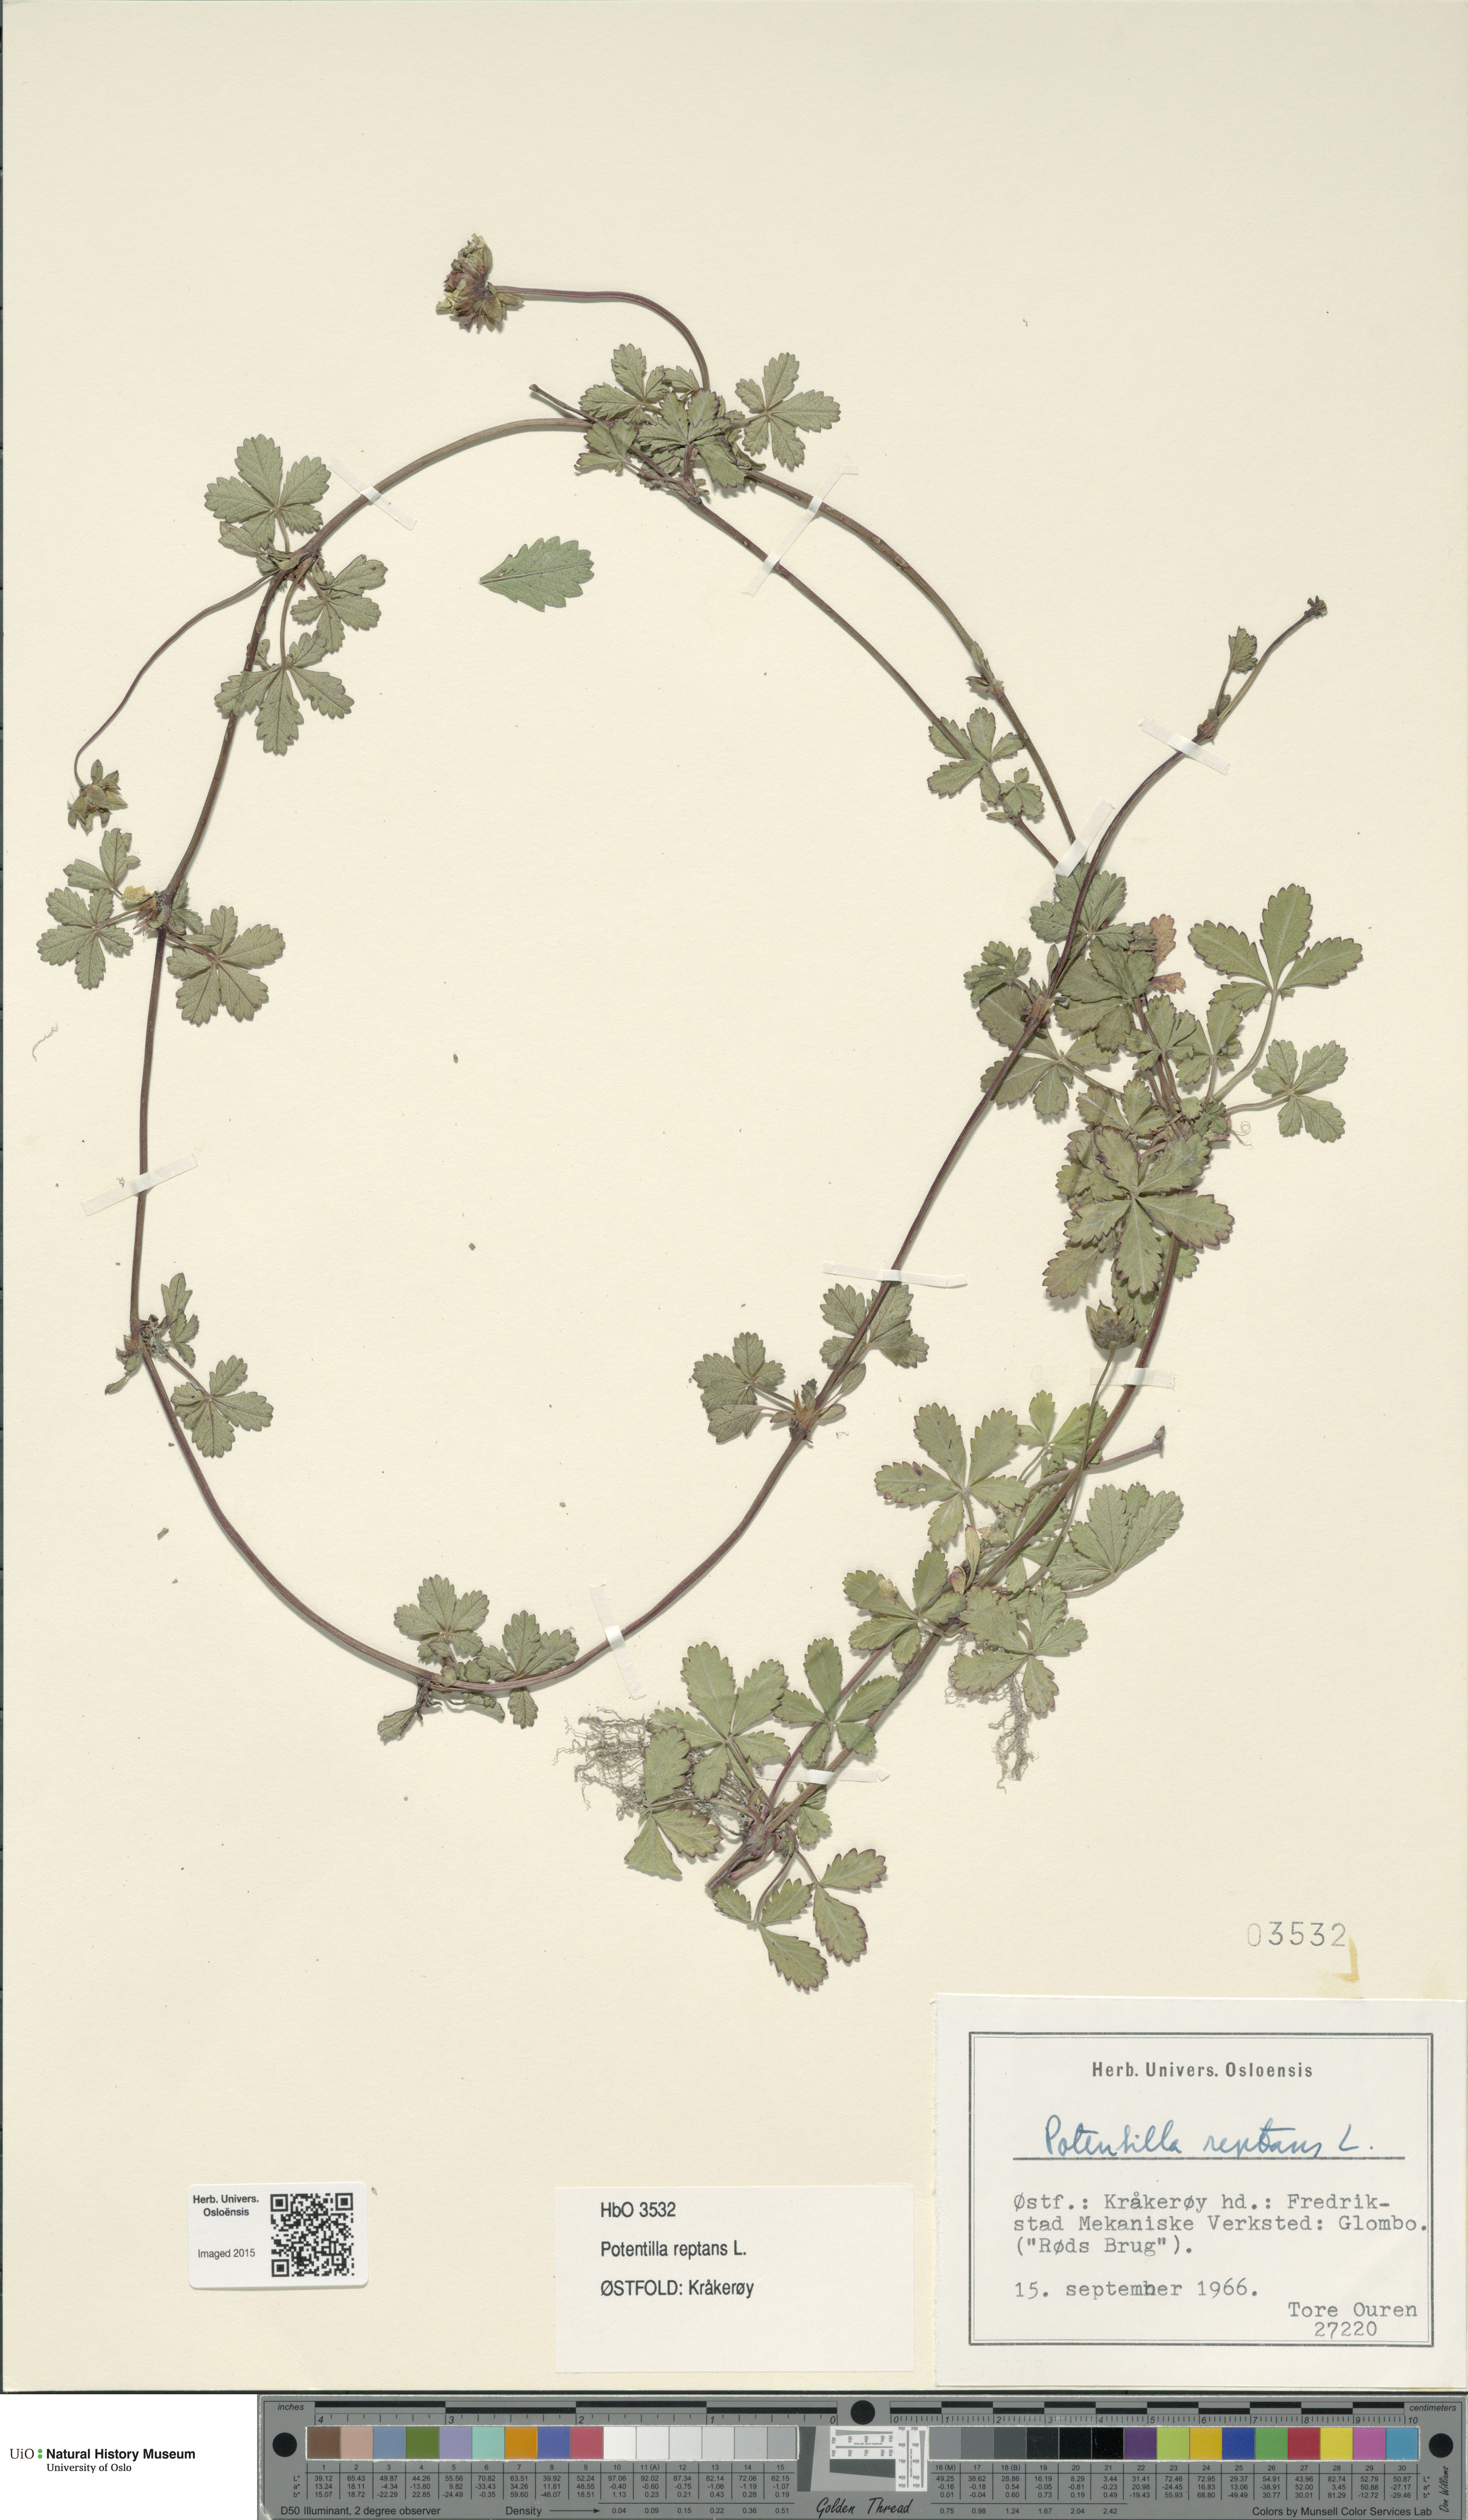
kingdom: Plantae
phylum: Tracheophyta
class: Magnoliopsida
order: Rosales
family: Rosaceae
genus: Potentilla
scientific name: Potentilla reptans
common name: Creeping cinquefoil
